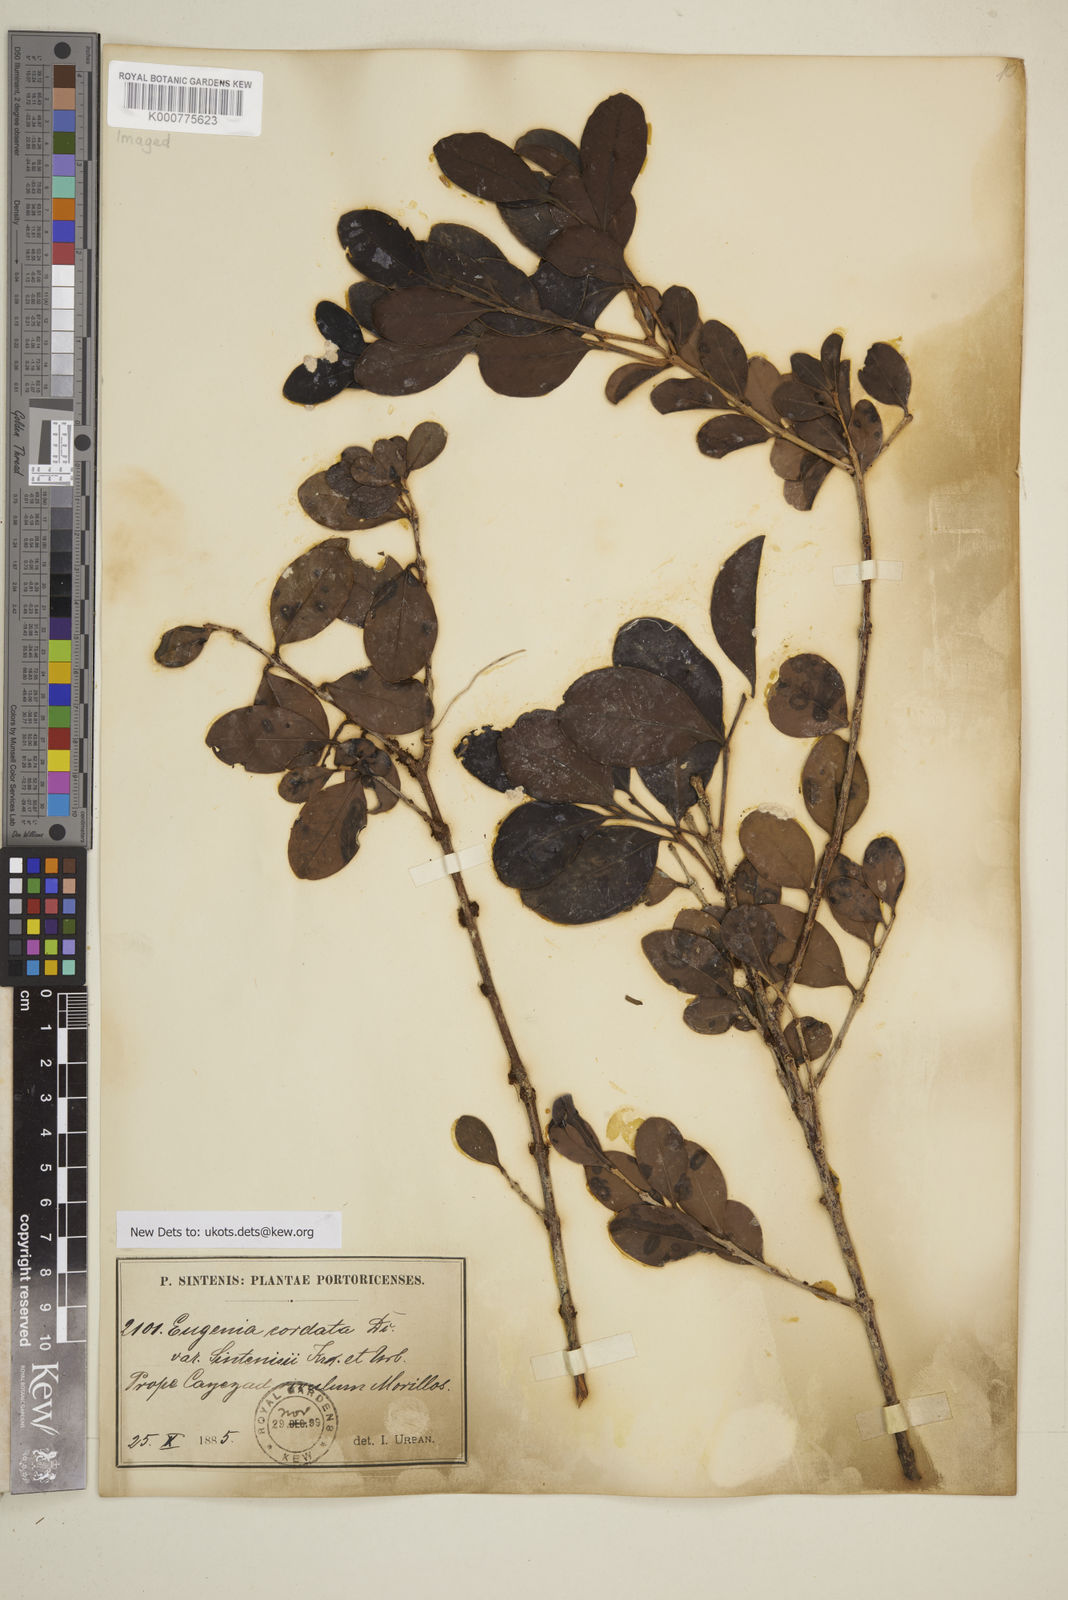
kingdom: Plantae
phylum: Tracheophyta
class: Magnoliopsida
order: Myrtales
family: Myrtaceae
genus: Eugenia
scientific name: Eugenia cordata
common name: Lathberry
